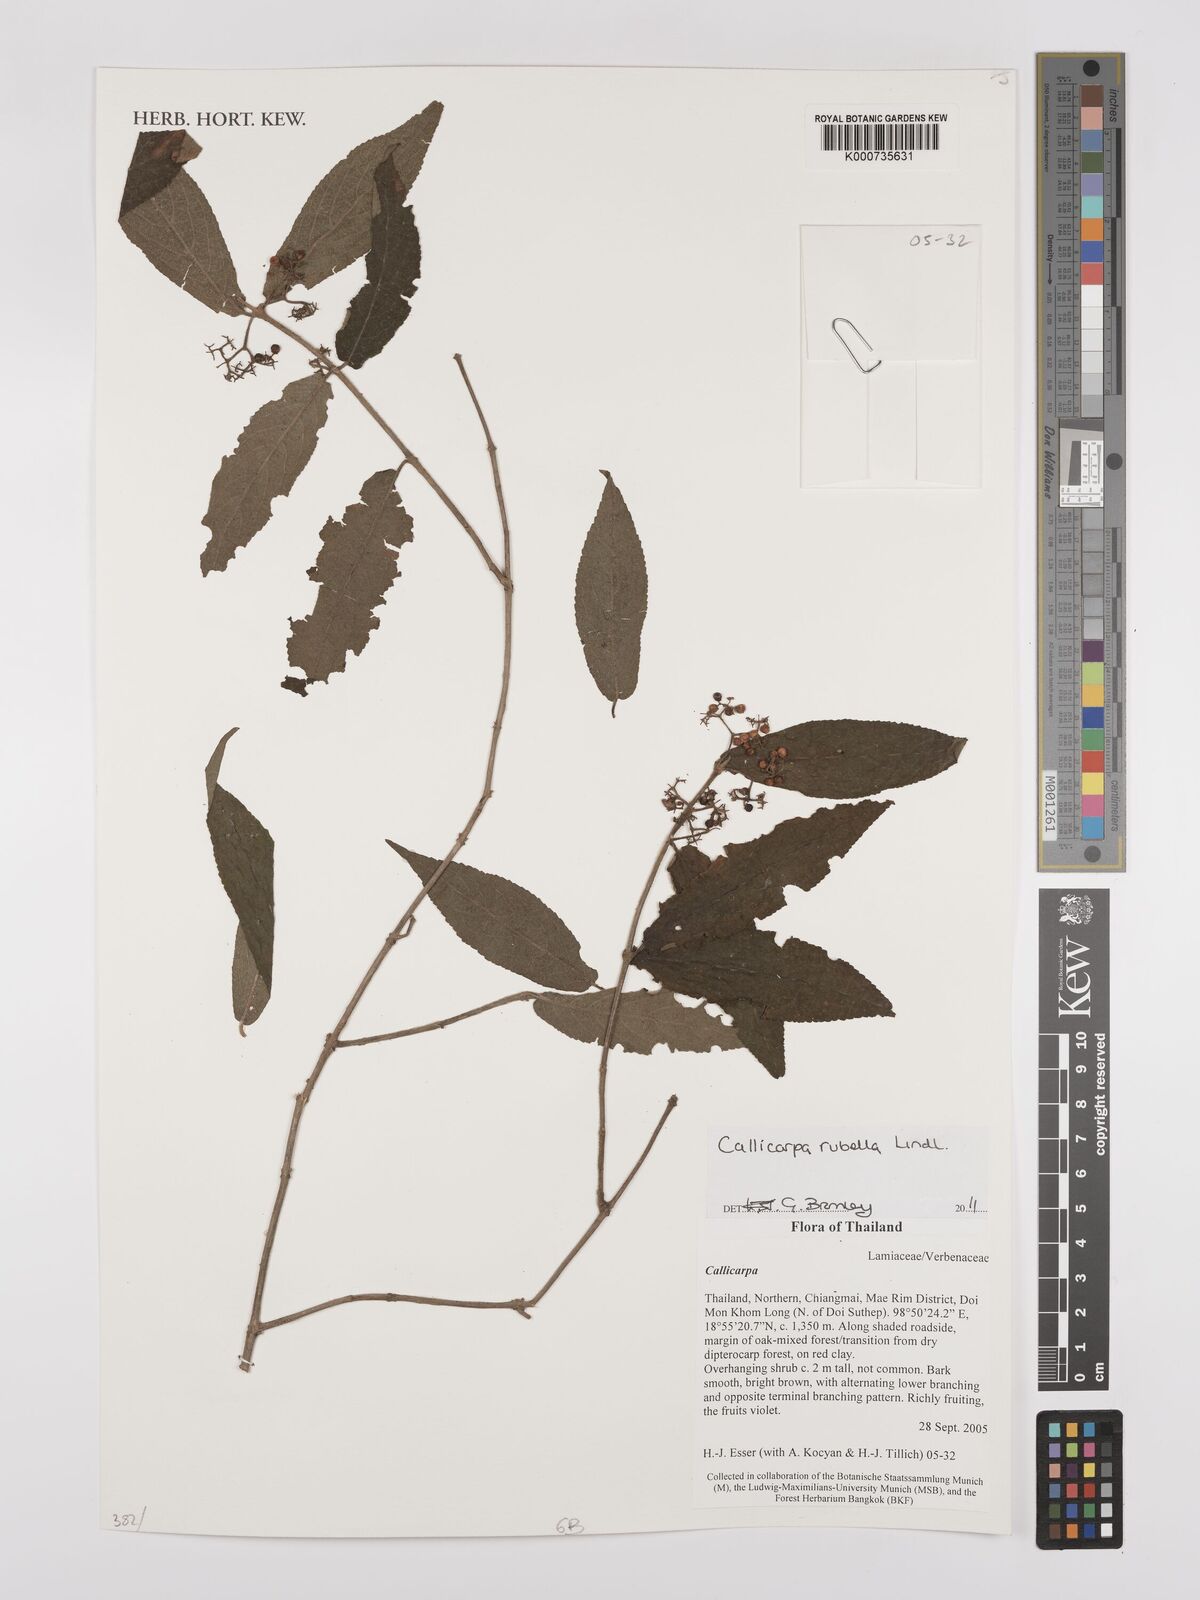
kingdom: Plantae
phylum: Tracheophyta
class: Magnoliopsida
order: Lamiales
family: Lamiaceae
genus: Callicarpa
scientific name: Callicarpa rubella
